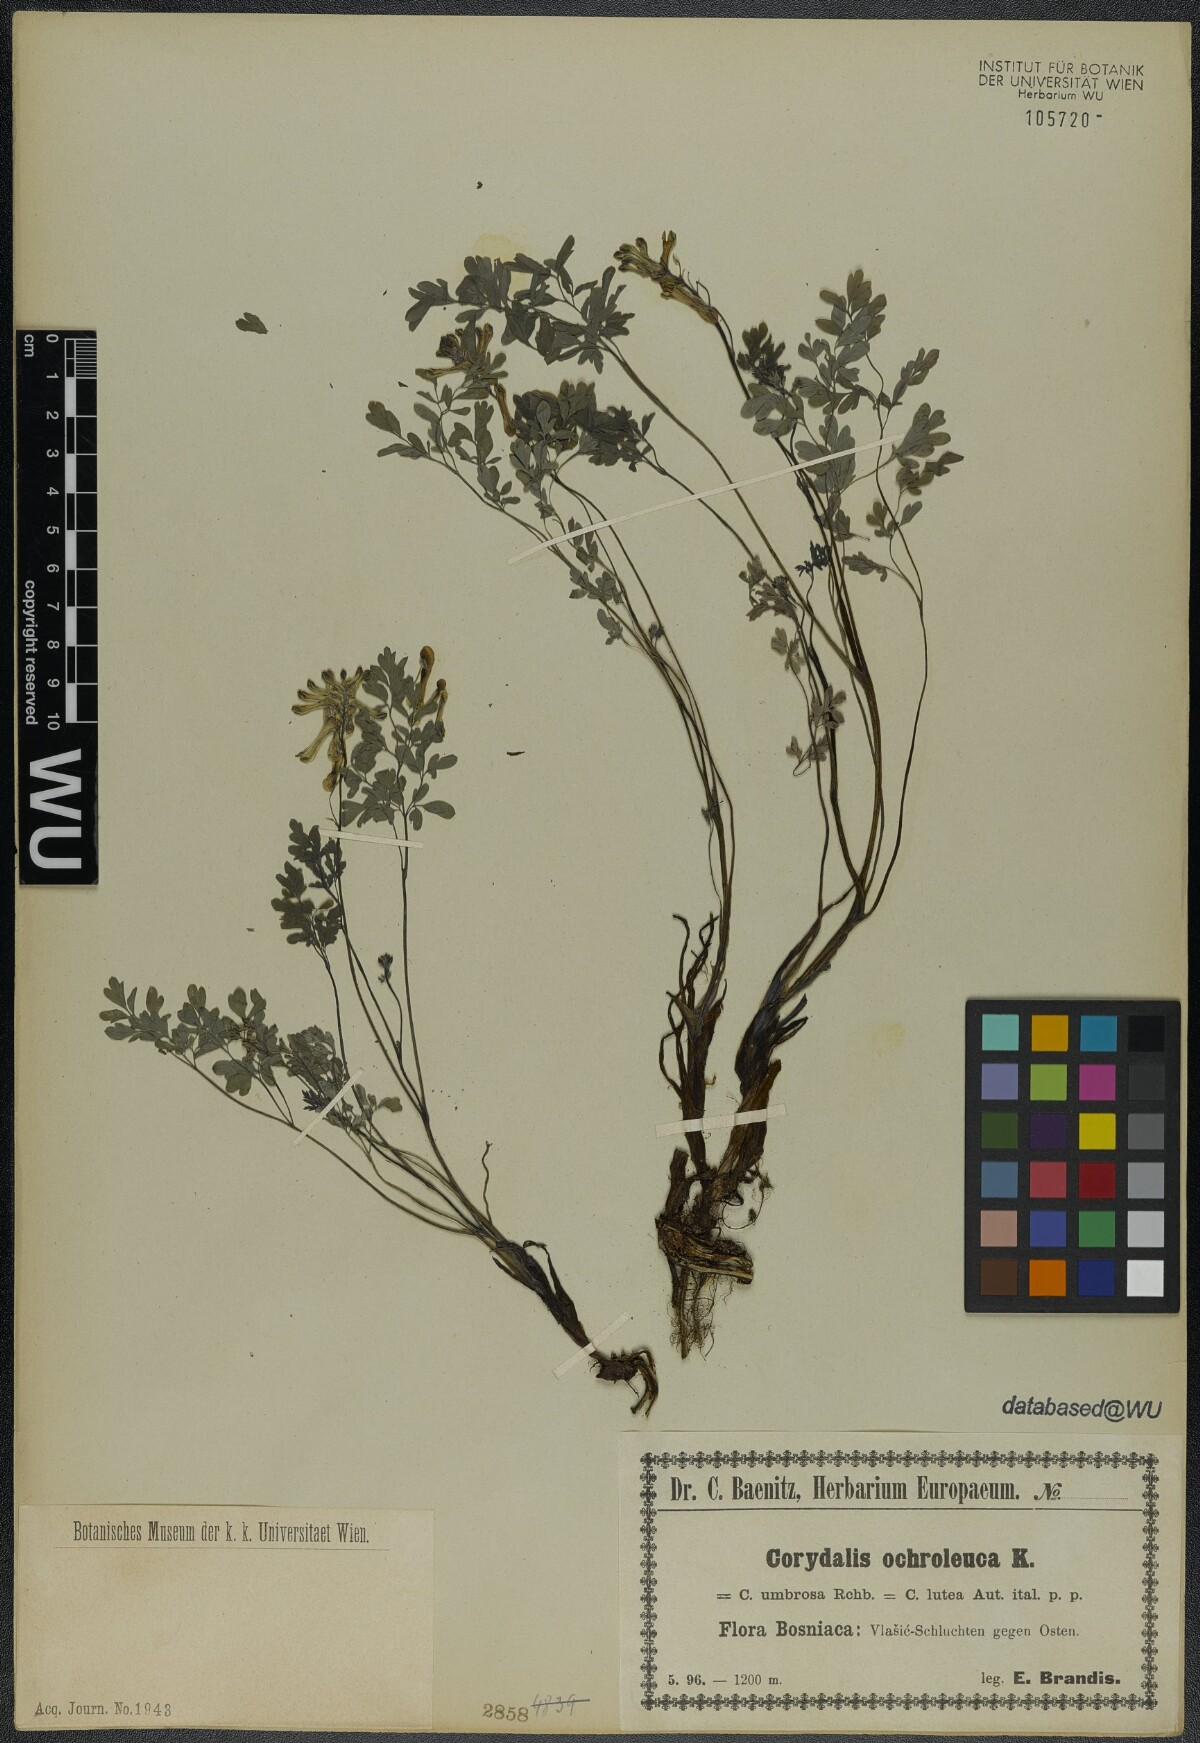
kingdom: Plantae
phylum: Tracheophyta
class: Magnoliopsida
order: Ranunculales
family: Papaveraceae
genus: Pseudofumaria
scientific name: Pseudofumaria alba
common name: Pale corydalis
